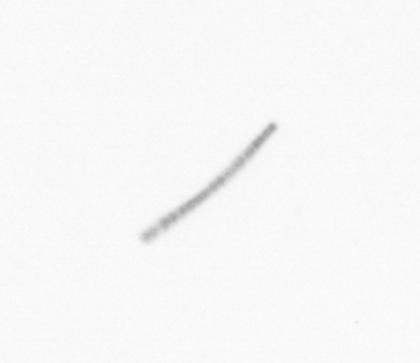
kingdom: Chromista
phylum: Ochrophyta
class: Bacillariophyceae
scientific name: Bacillariophyceae
